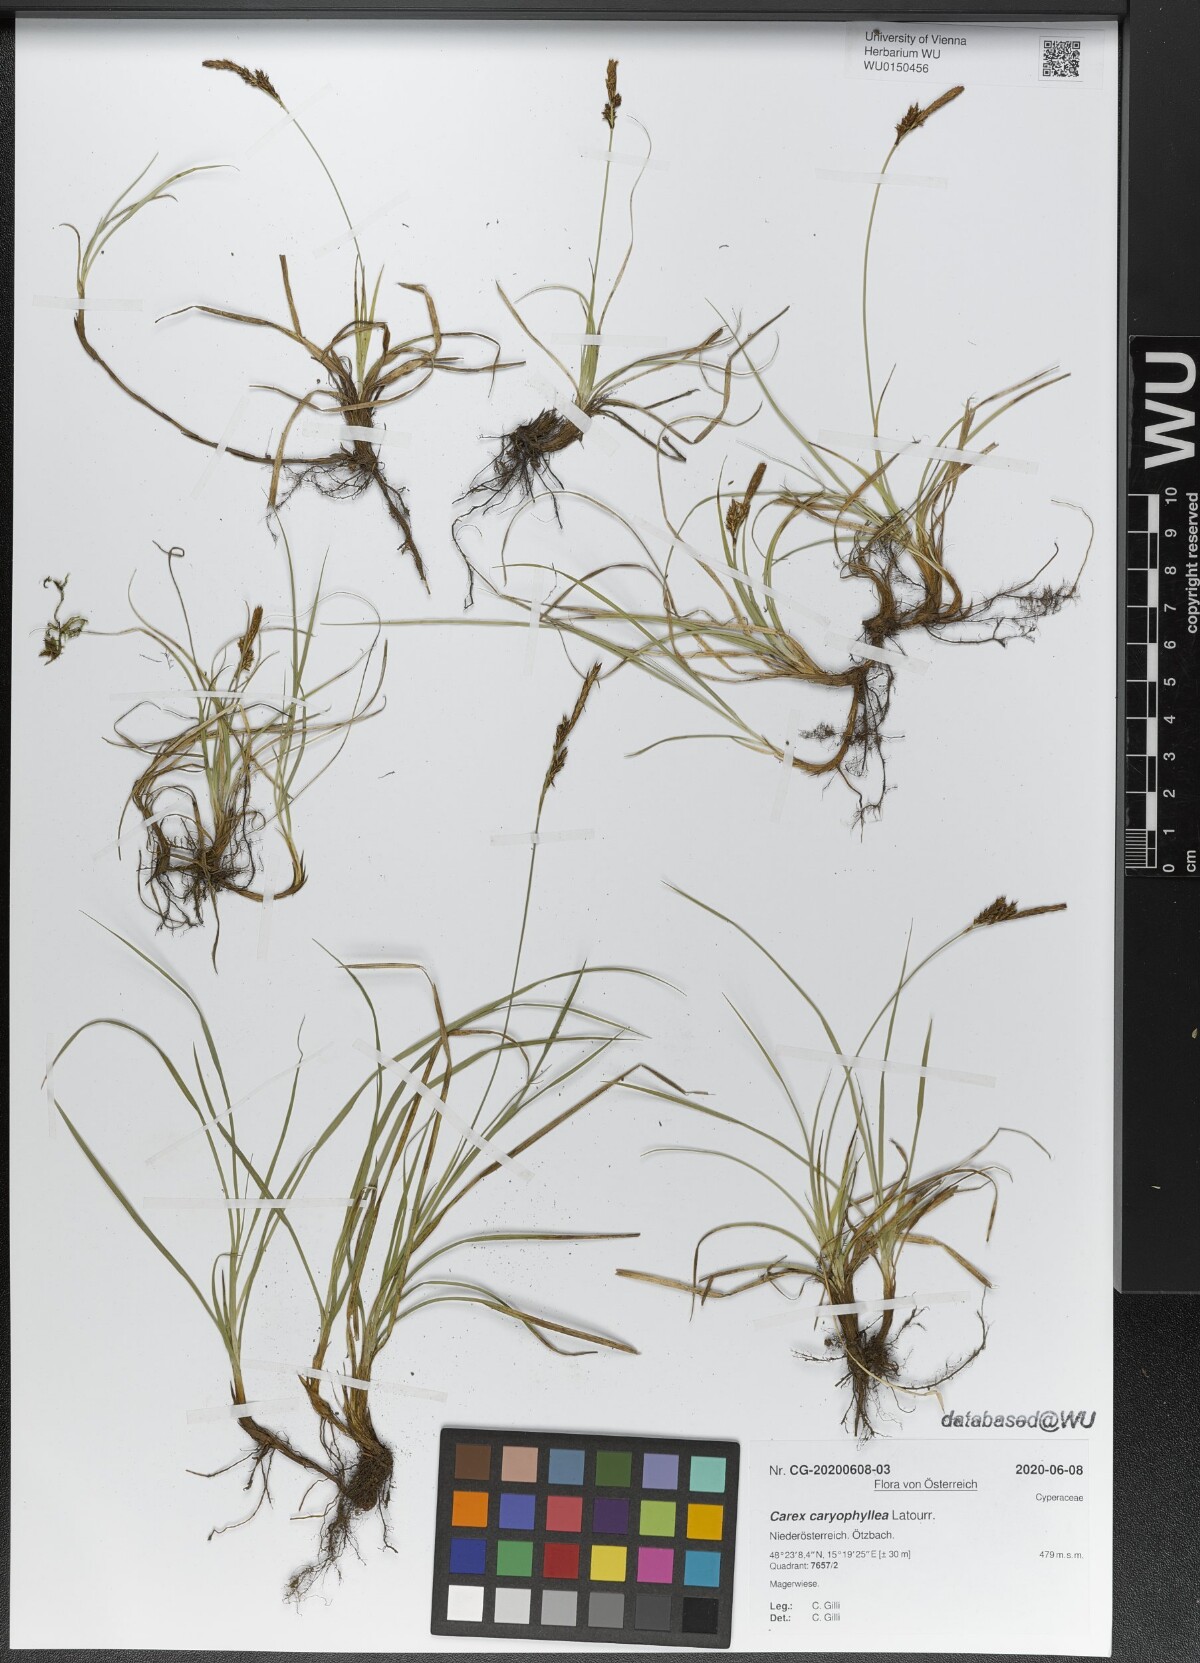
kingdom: Plantae
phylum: Tracheophyta
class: Liliopsida
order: Poales
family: Cyperaceae
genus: Carex
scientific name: Carex caryophyllea
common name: Spring sedge
